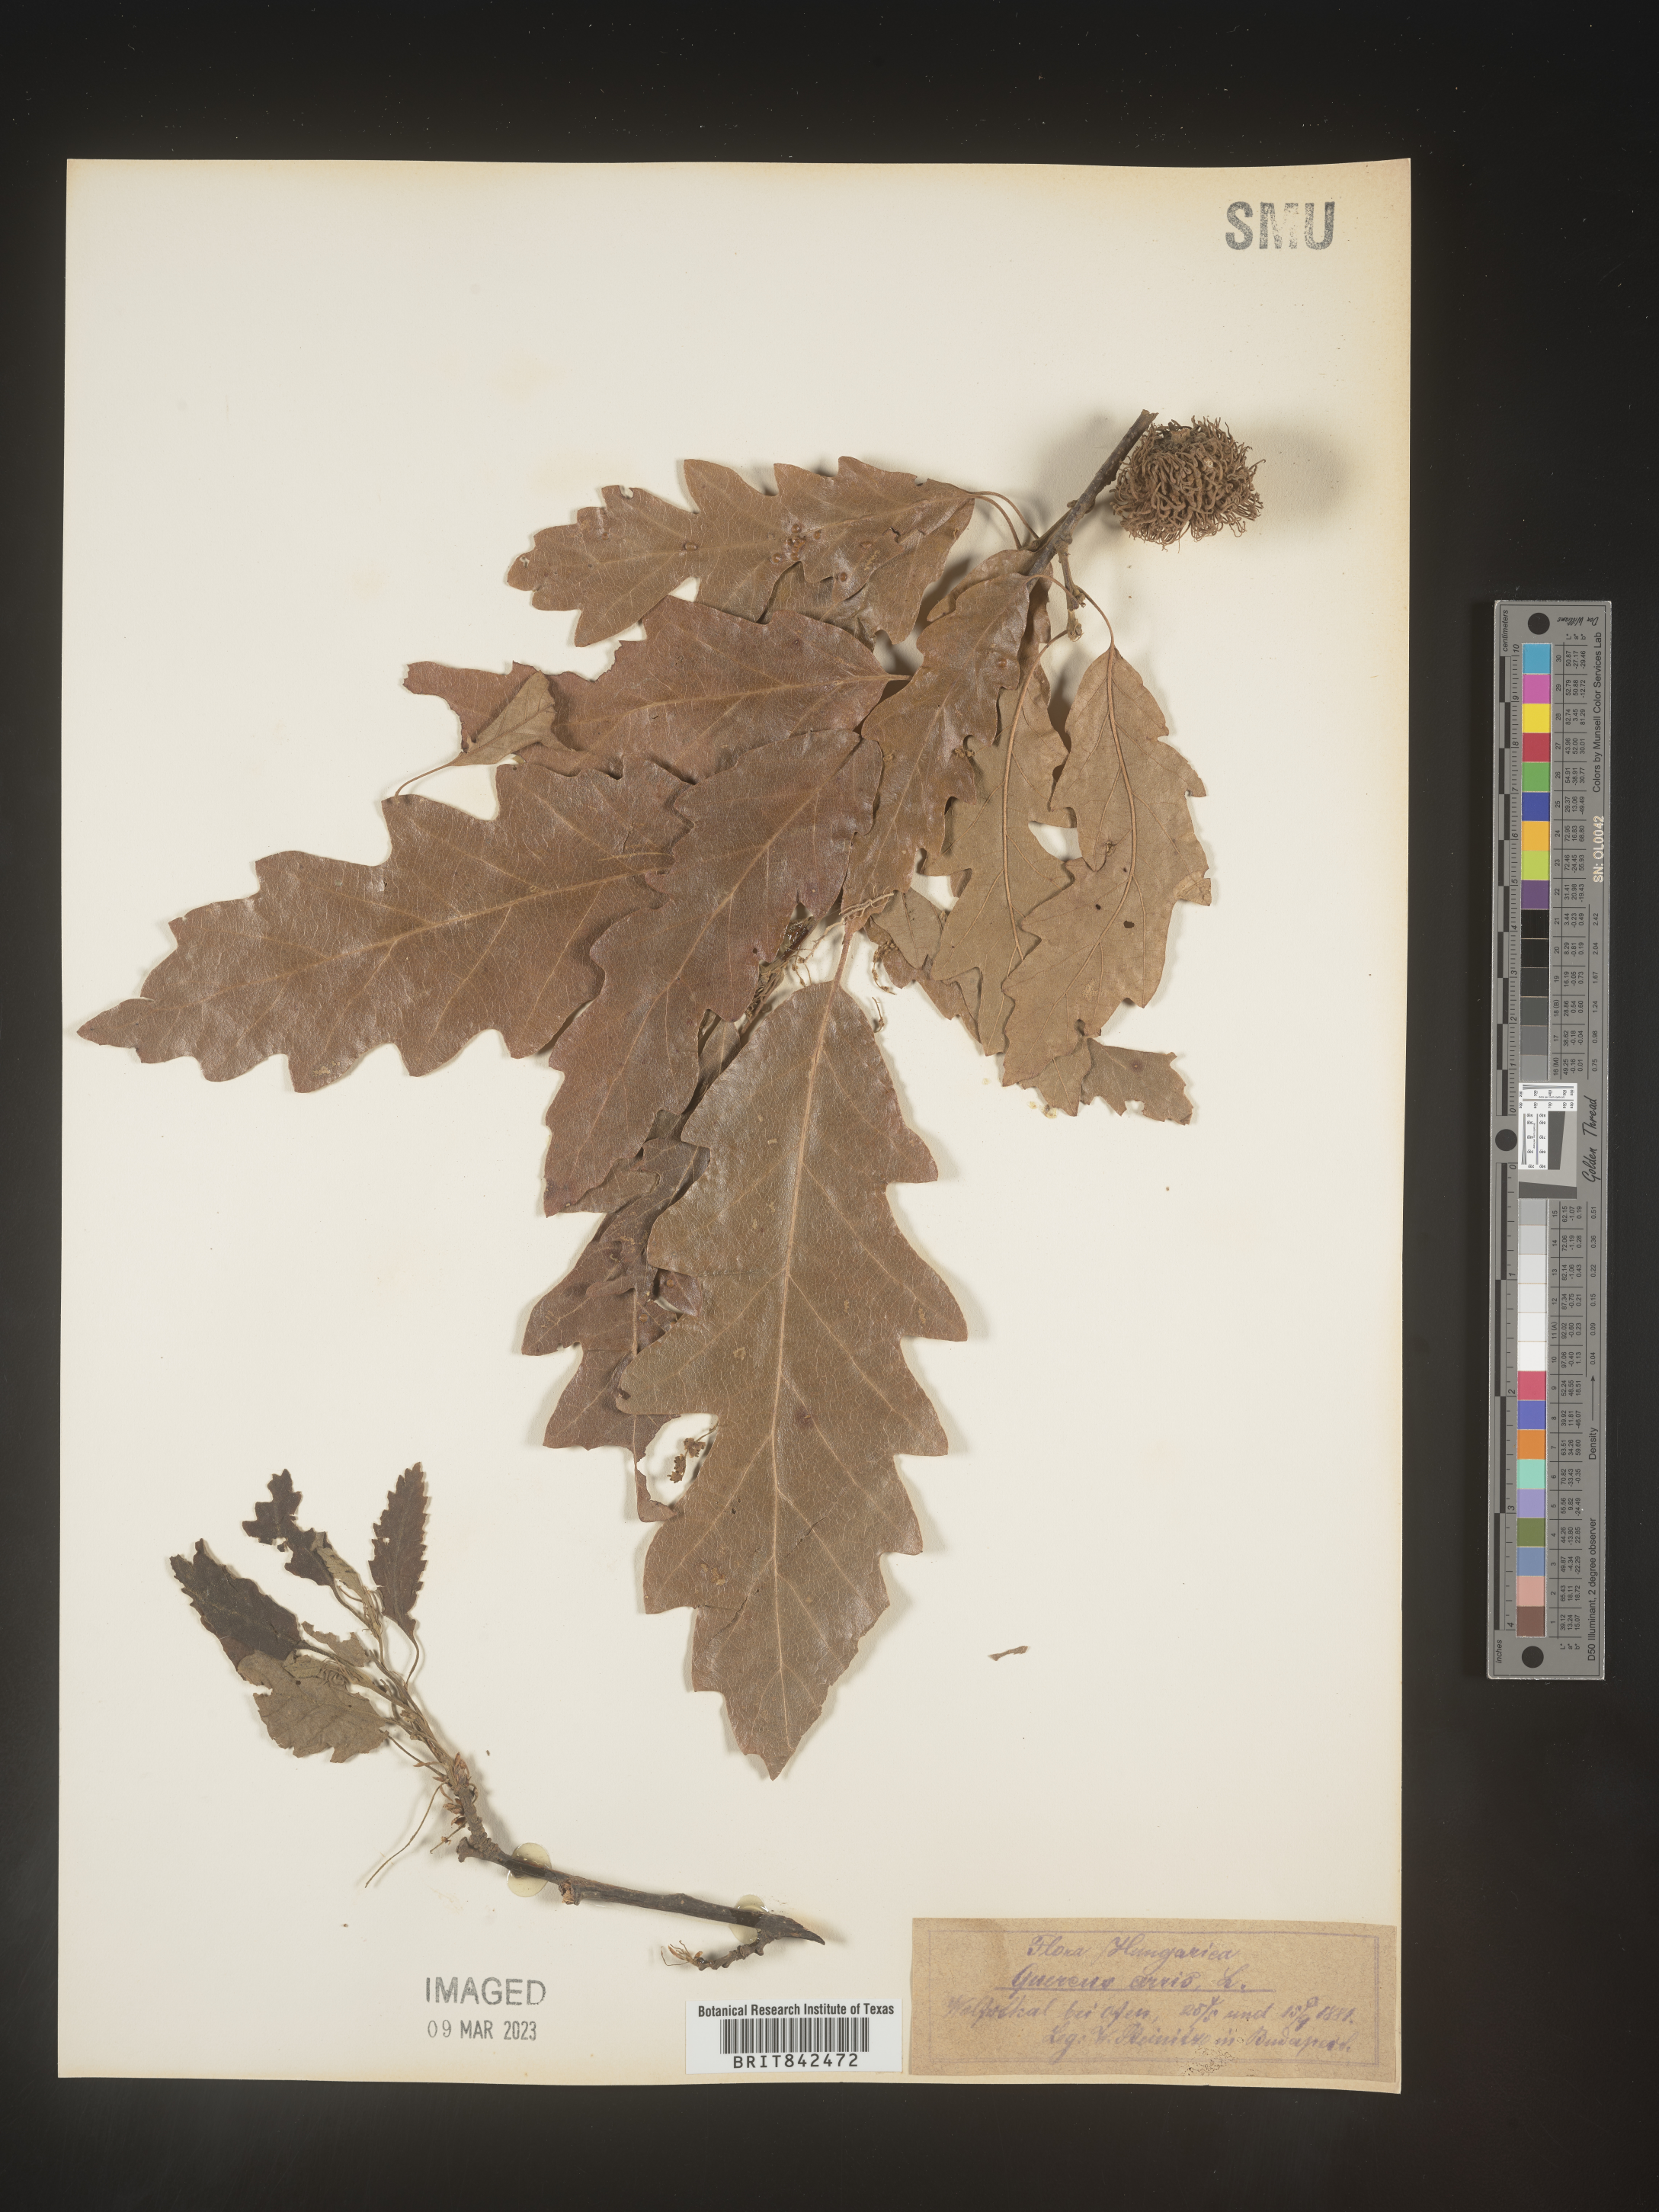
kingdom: Plantae
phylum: Tracheophyta
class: Magnoliopsida
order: Fagales
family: Fagaceae
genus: Quercus
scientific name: Quercus
